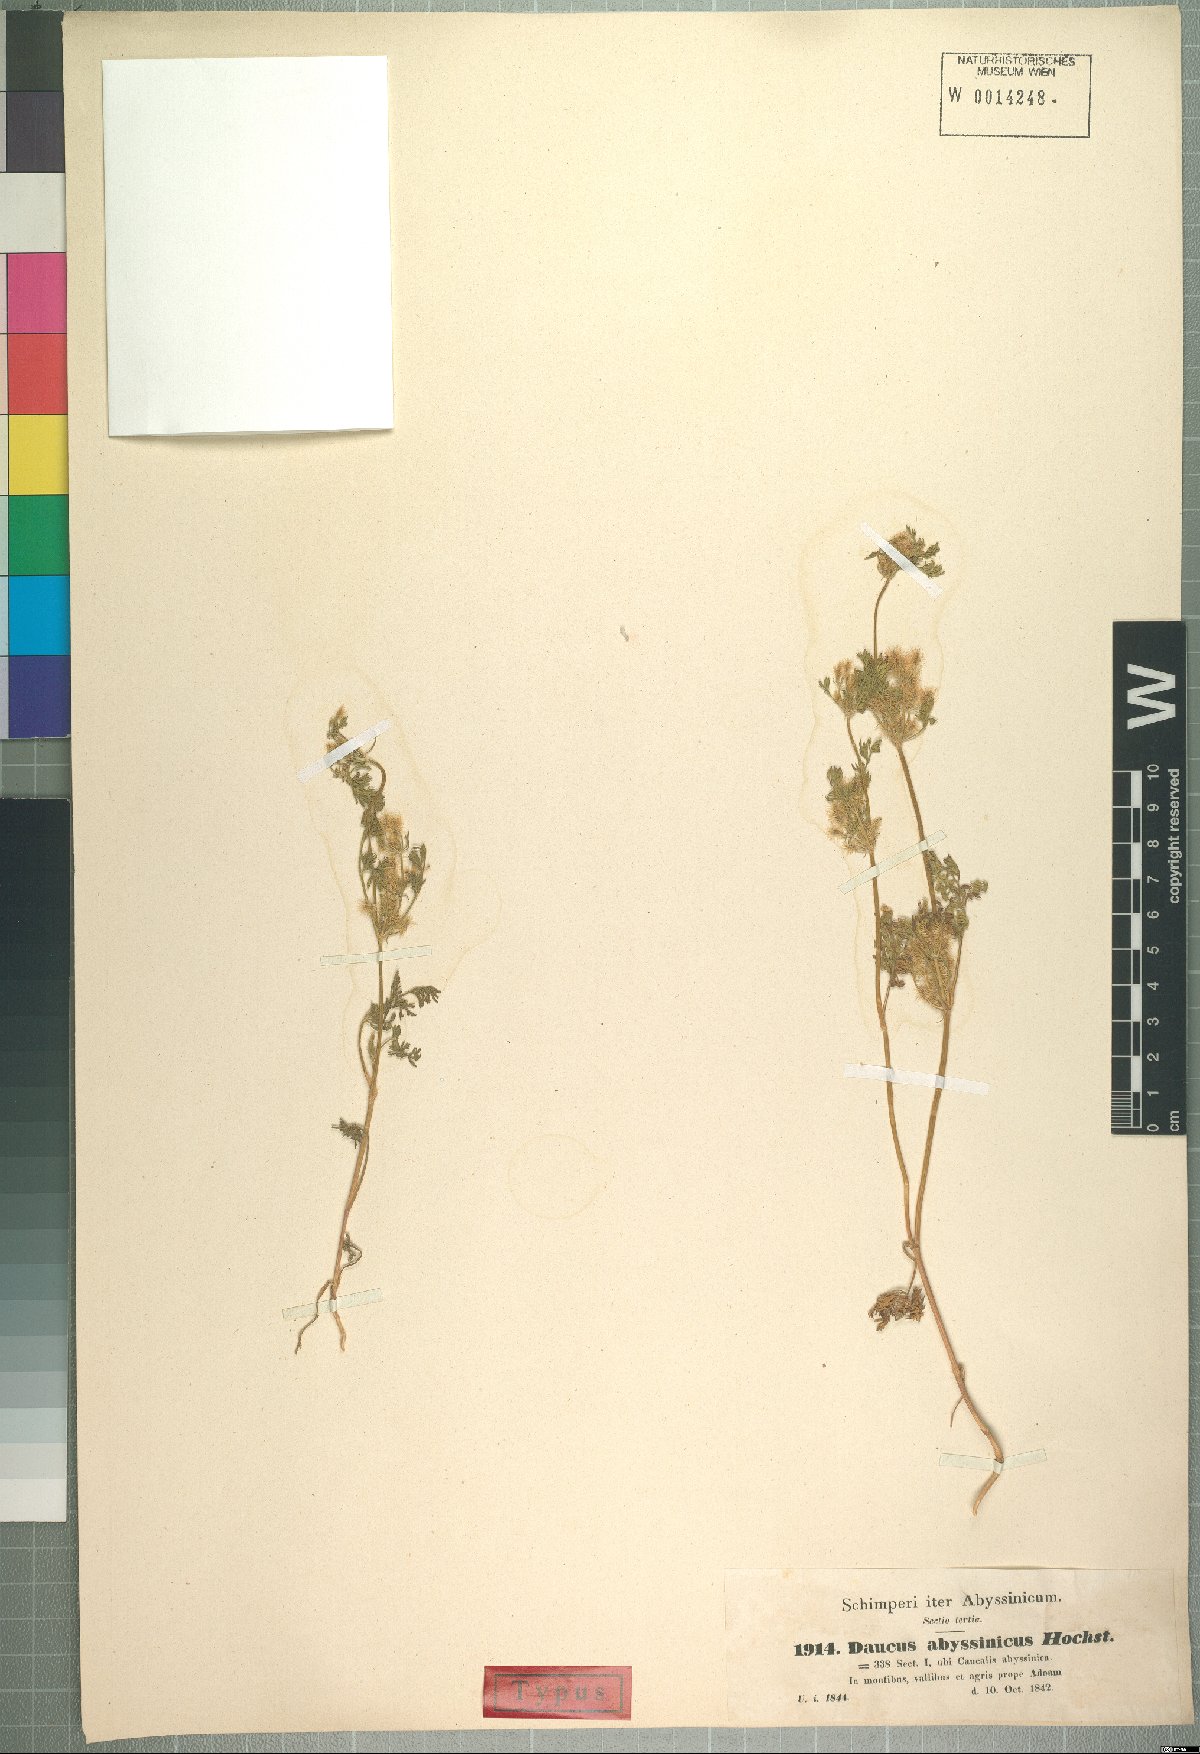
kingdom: Plantae
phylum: Tracheophyta
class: Magnoliopsida
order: Apiales
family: Apiaceae
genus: Daucus
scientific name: Daucus hochstetteri
